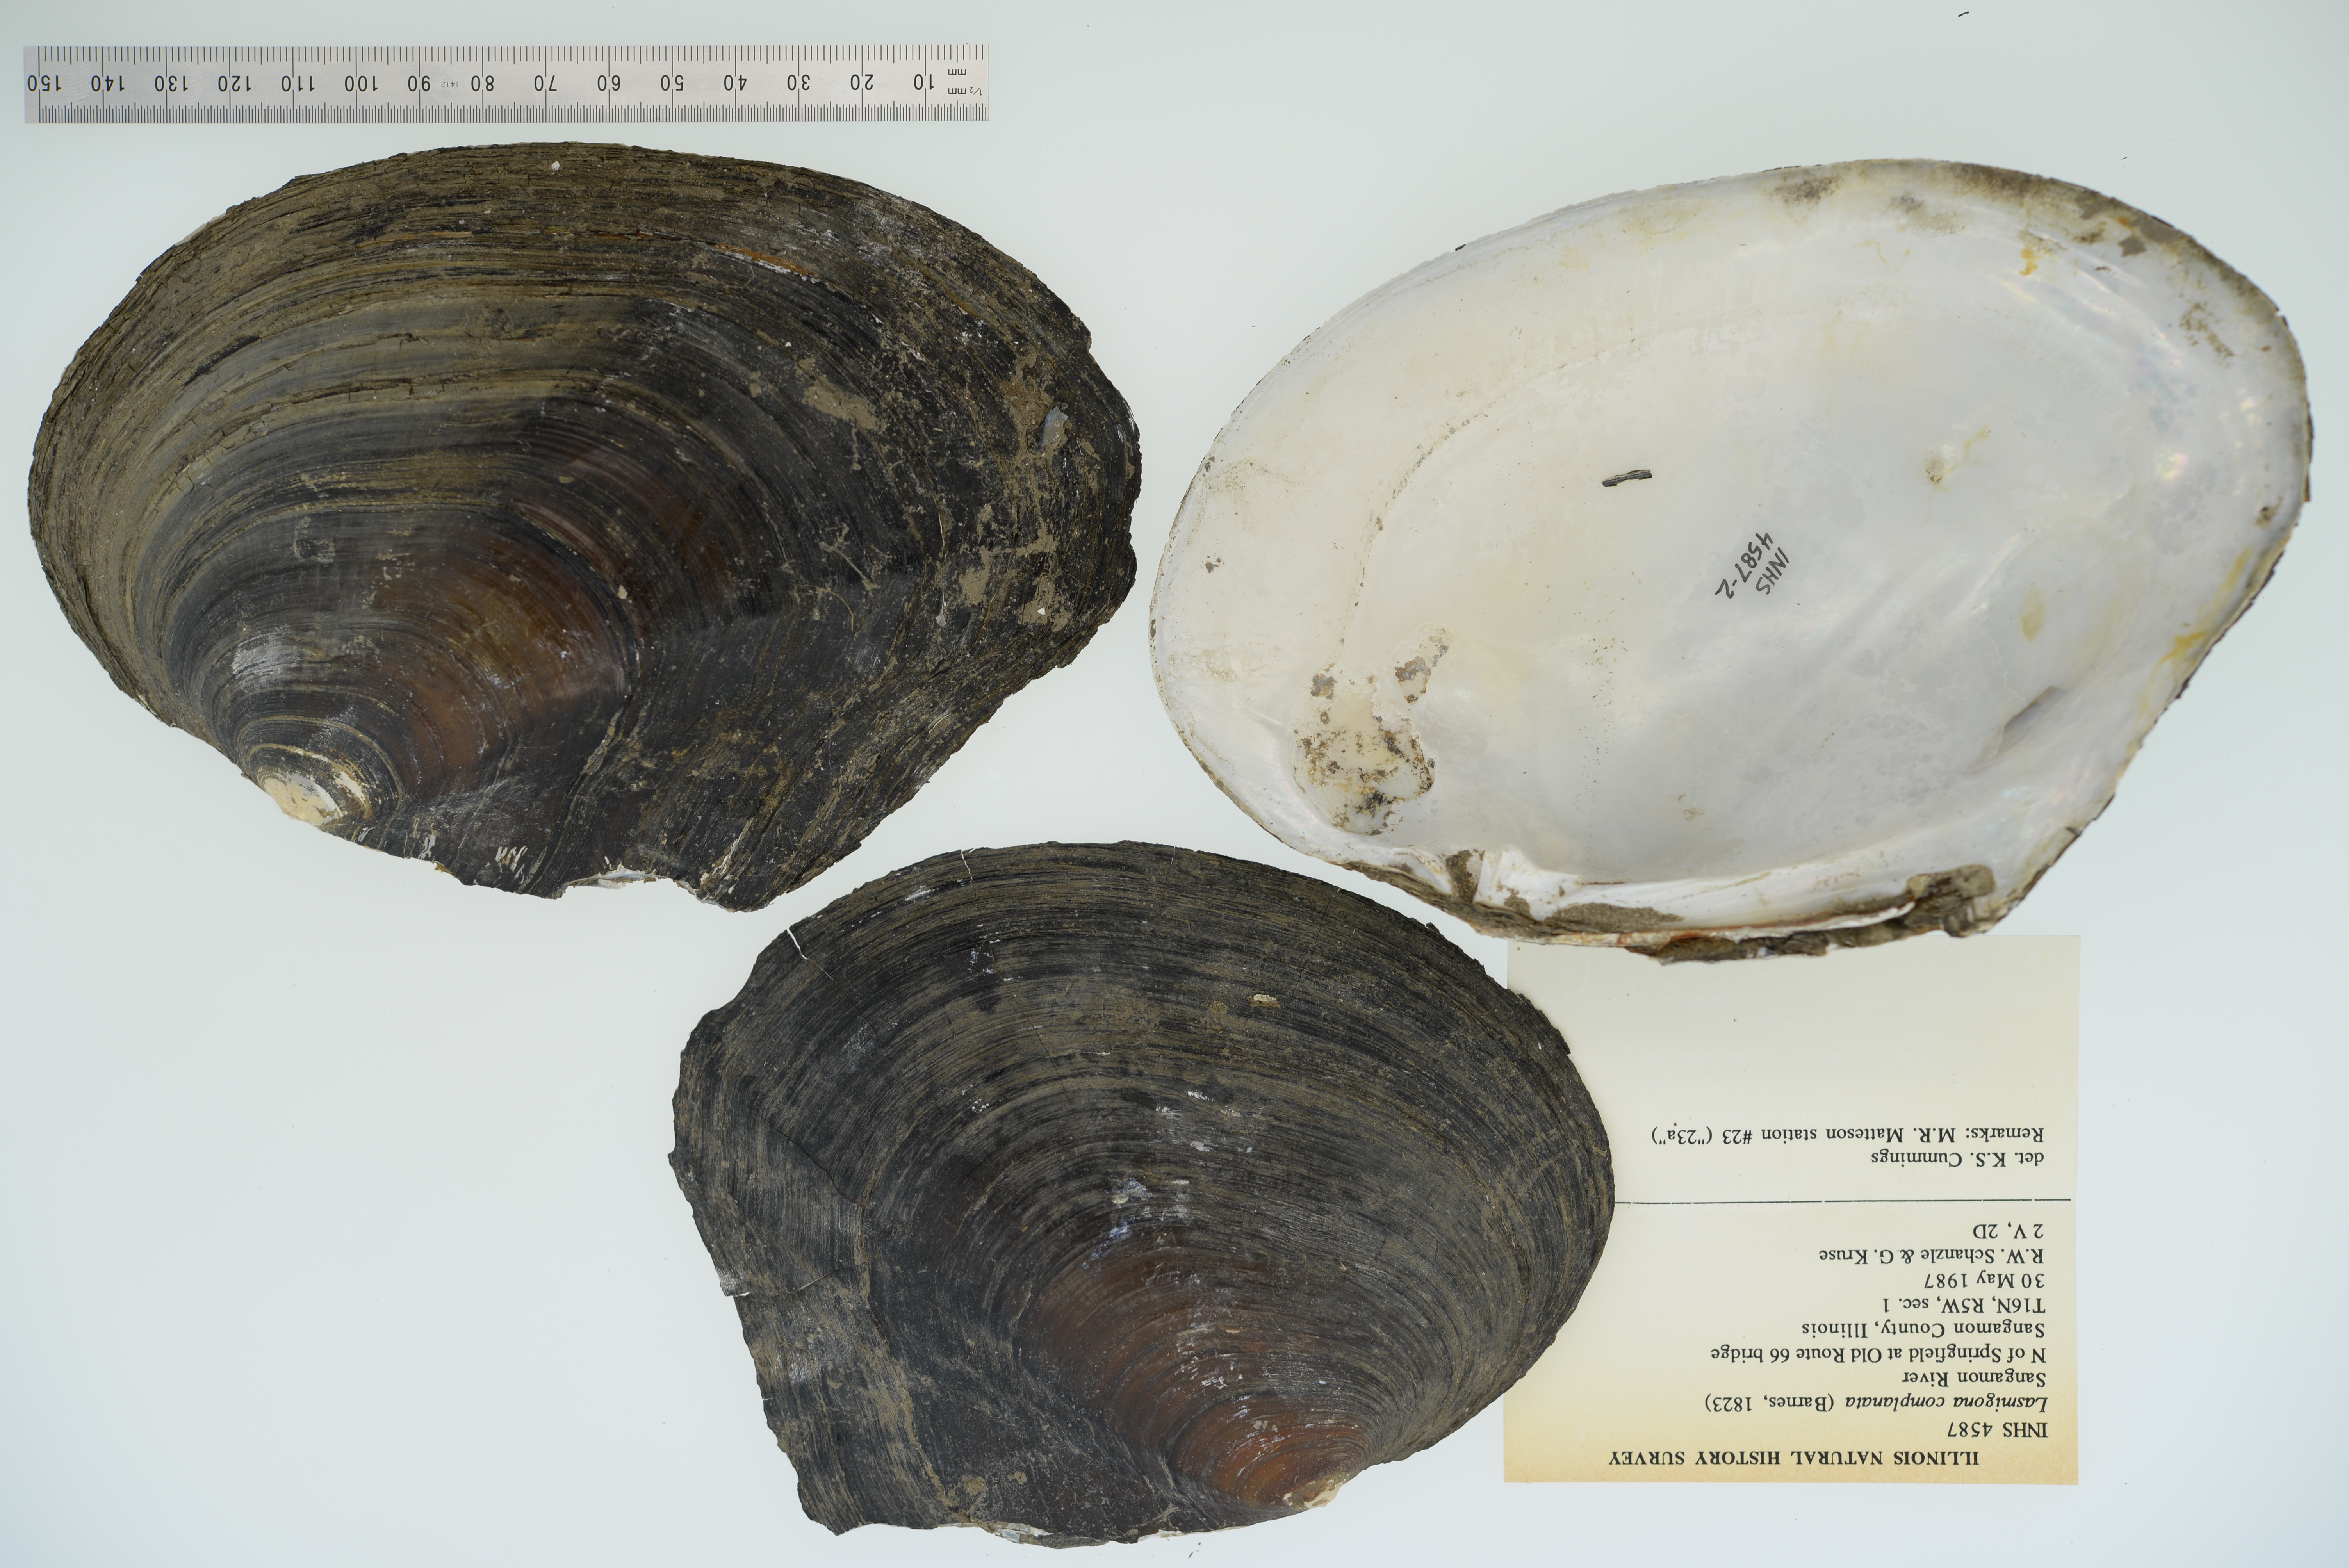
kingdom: Animalia
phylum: Mollusca
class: Bivalvia
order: Unionida
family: Unionidae
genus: Lasmigona
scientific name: Lasmigona complanata
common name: White heelsplitter
